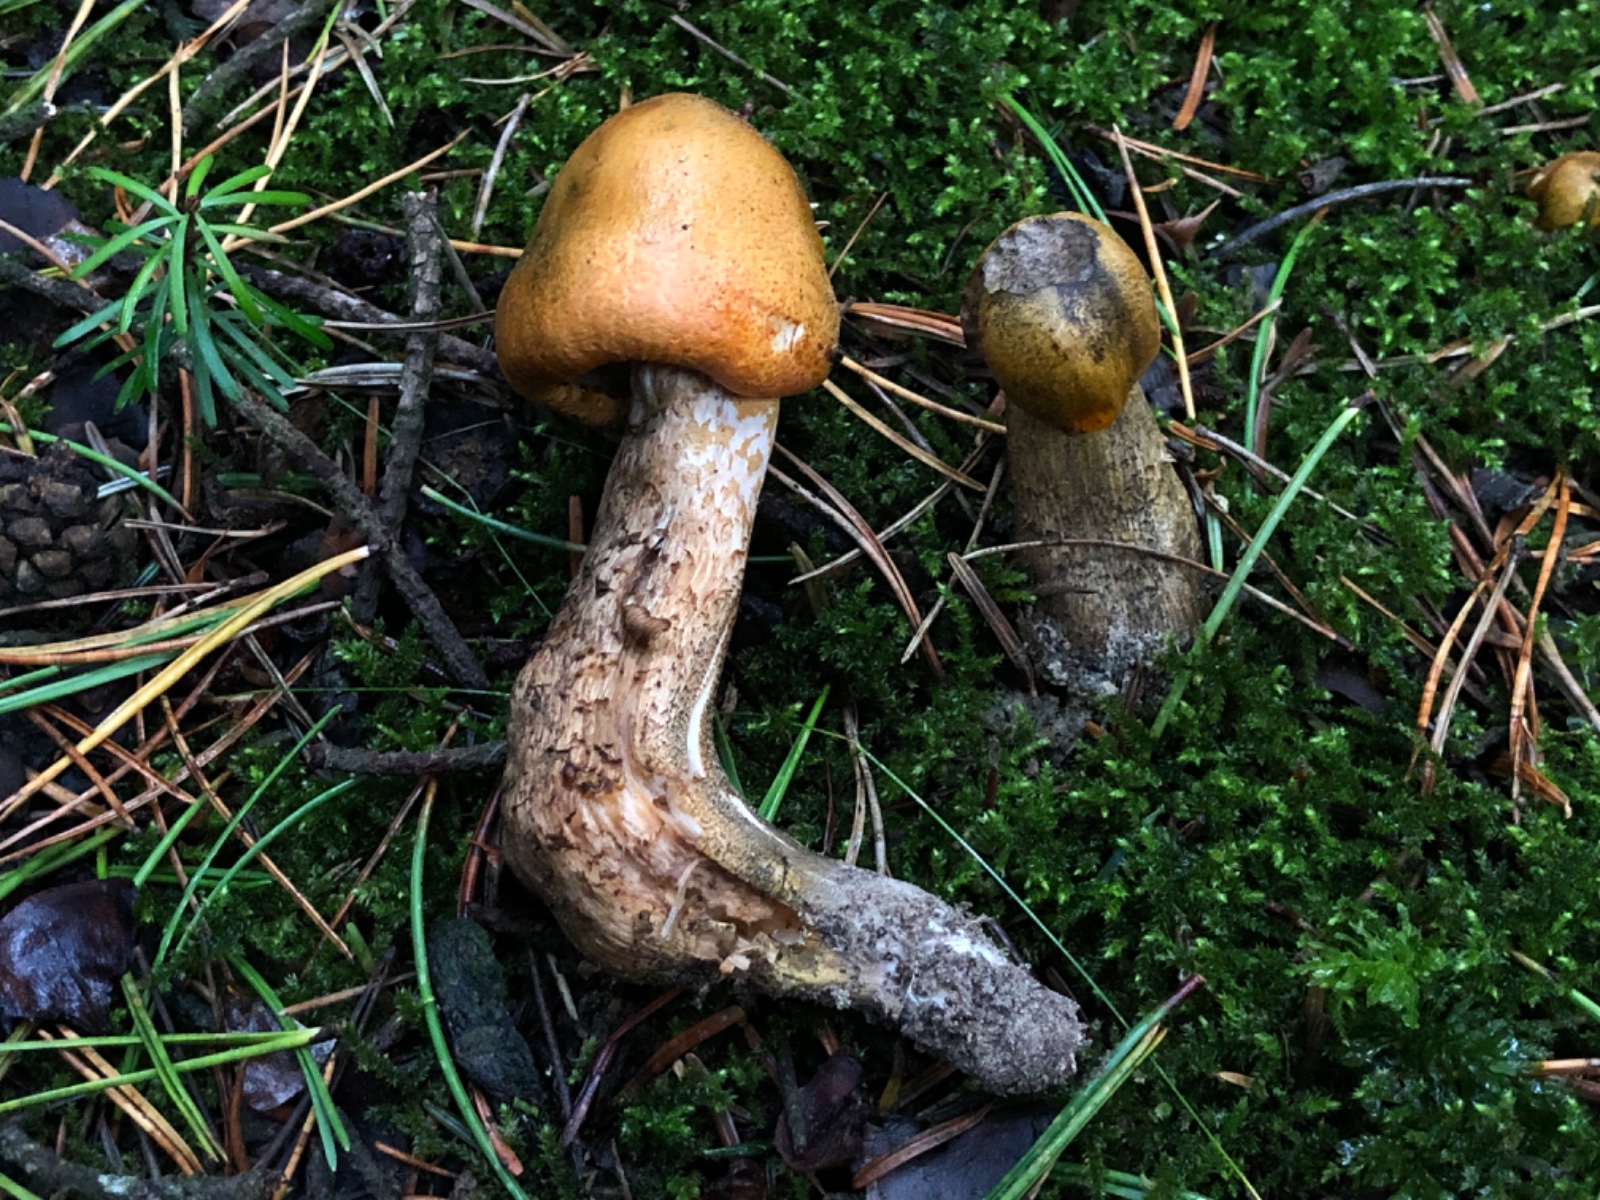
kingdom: Fungi
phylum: Basidiomycota
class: Agaricomycetes
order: Agaricales
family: Tricholomataceae
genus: Tricholoma
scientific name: Tricholoma aurantium
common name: orangegul ridderhat
